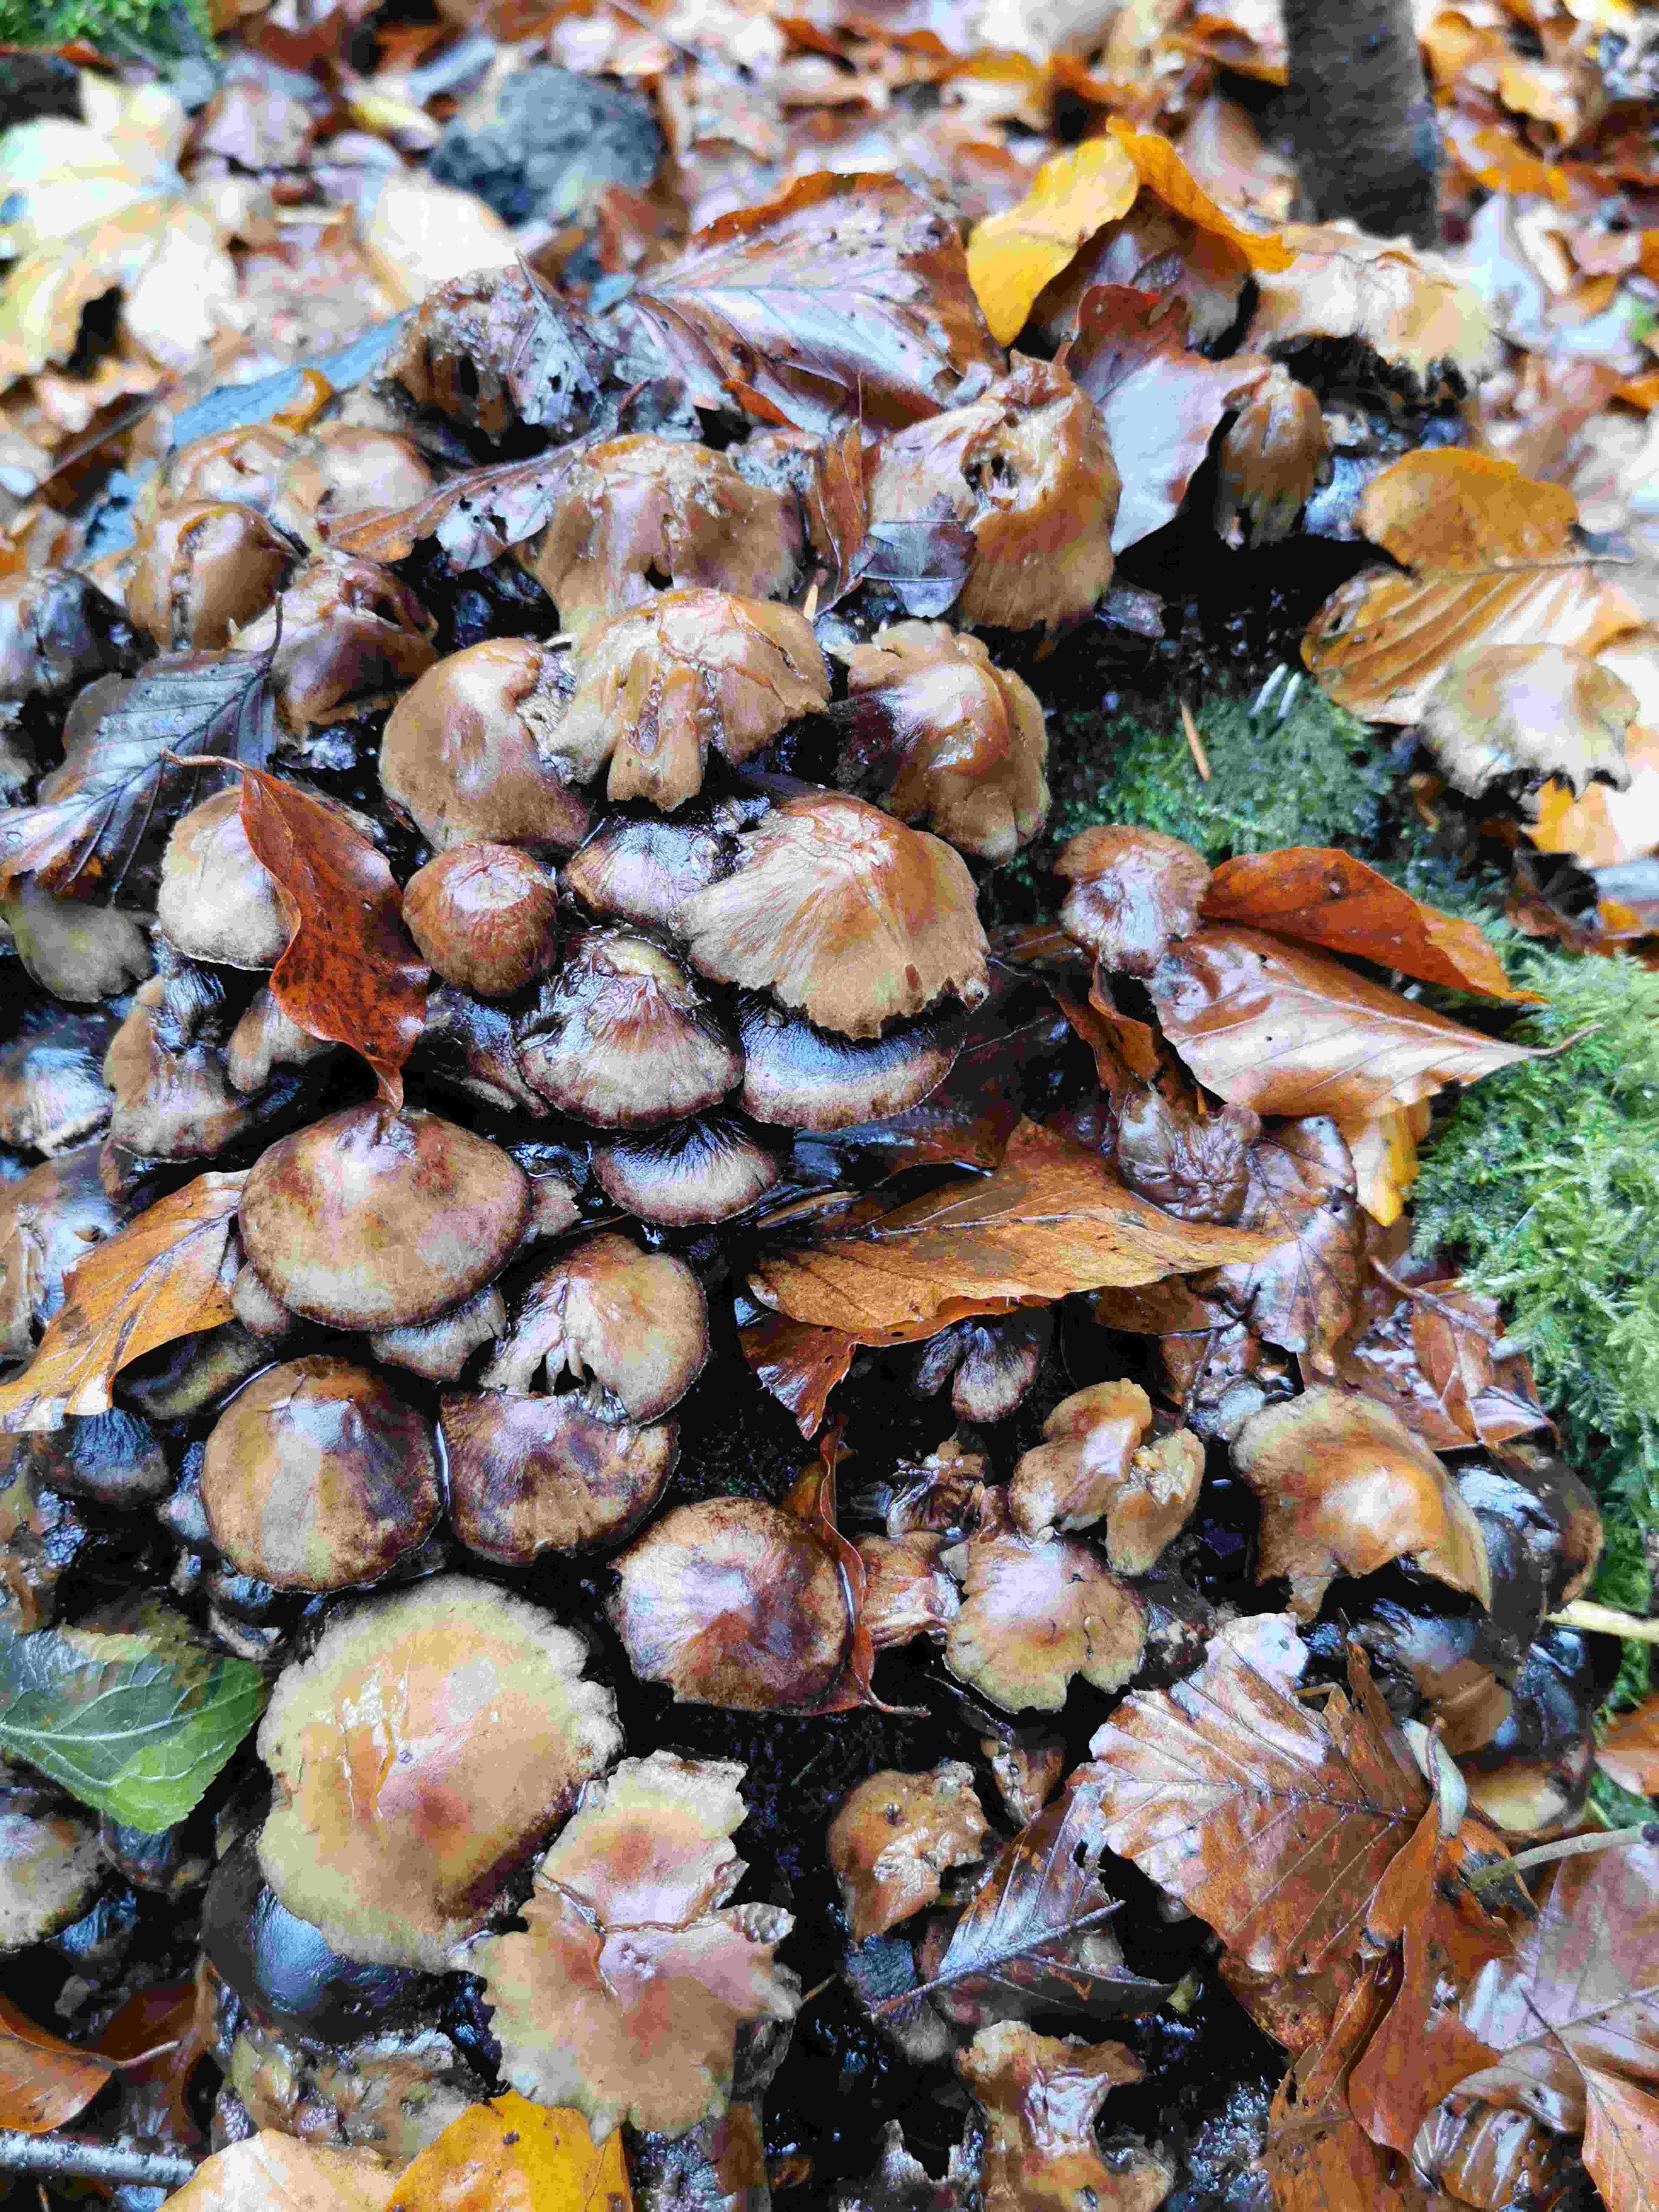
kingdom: Fungi
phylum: Basidiomycota
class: Agaricomycetes
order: Agaricales
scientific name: Agaricales
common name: champignonordenen
